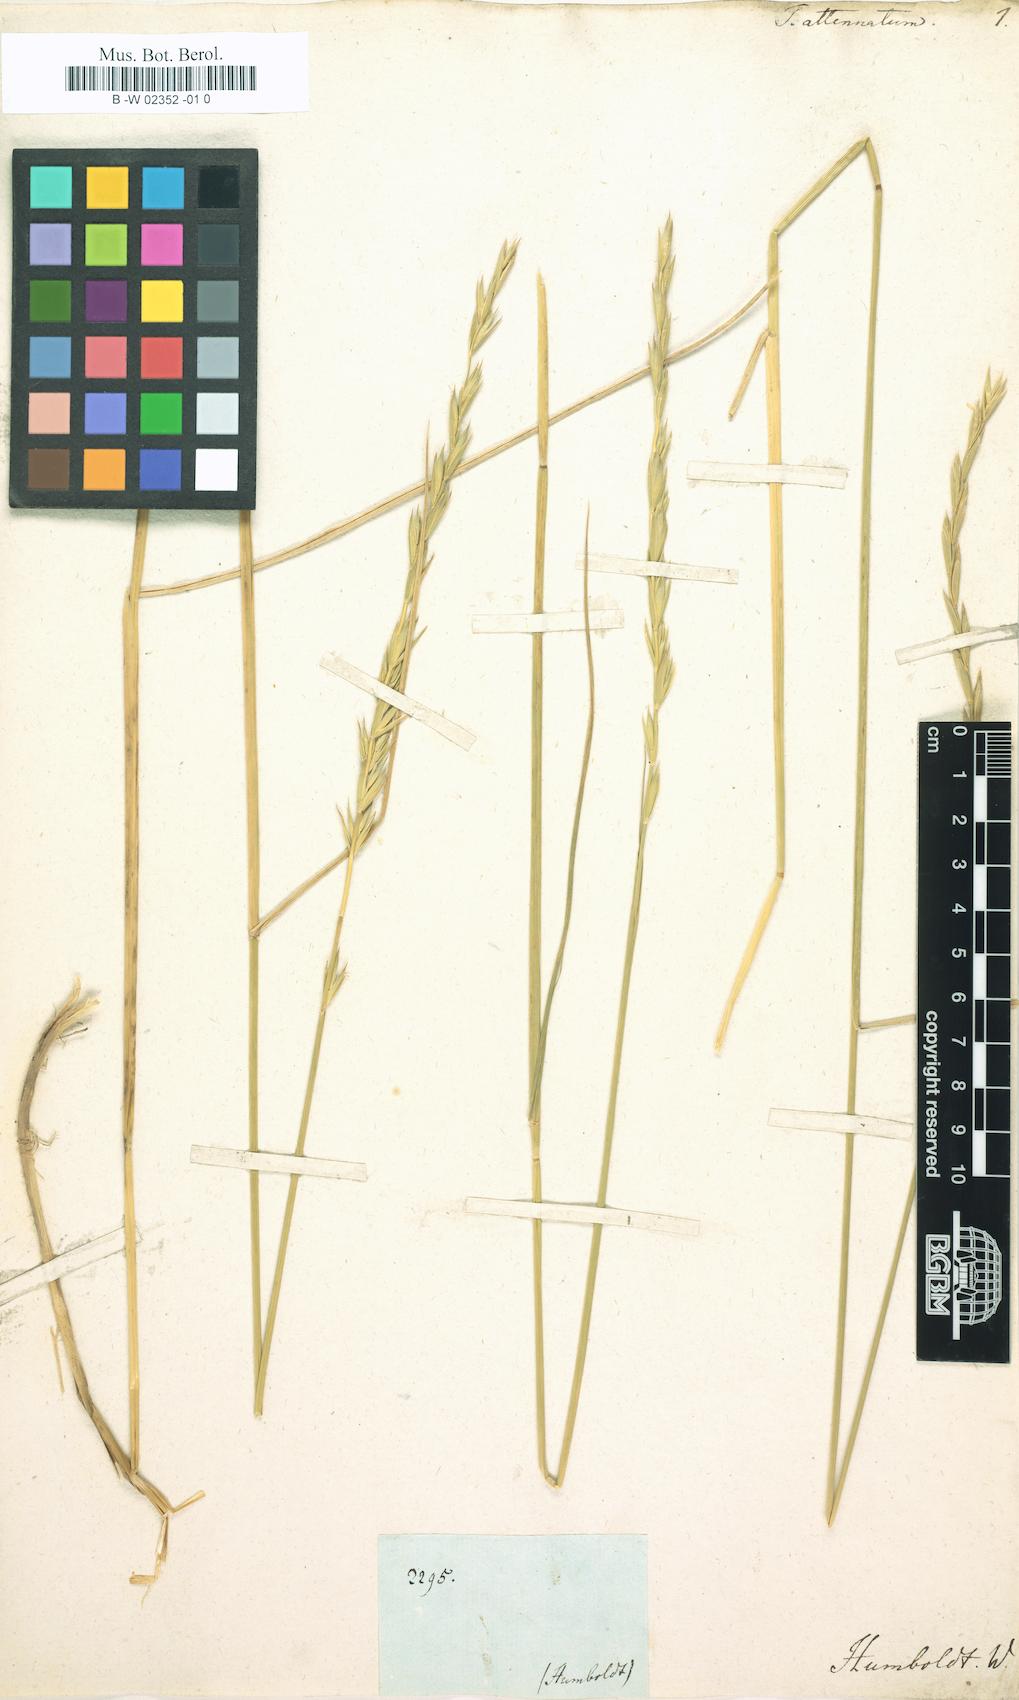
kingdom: Plantae
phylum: Tracheophyta
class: Liliopsida
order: Poales
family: Poaceae
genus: Elymus
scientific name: Elymus cordilleranus
